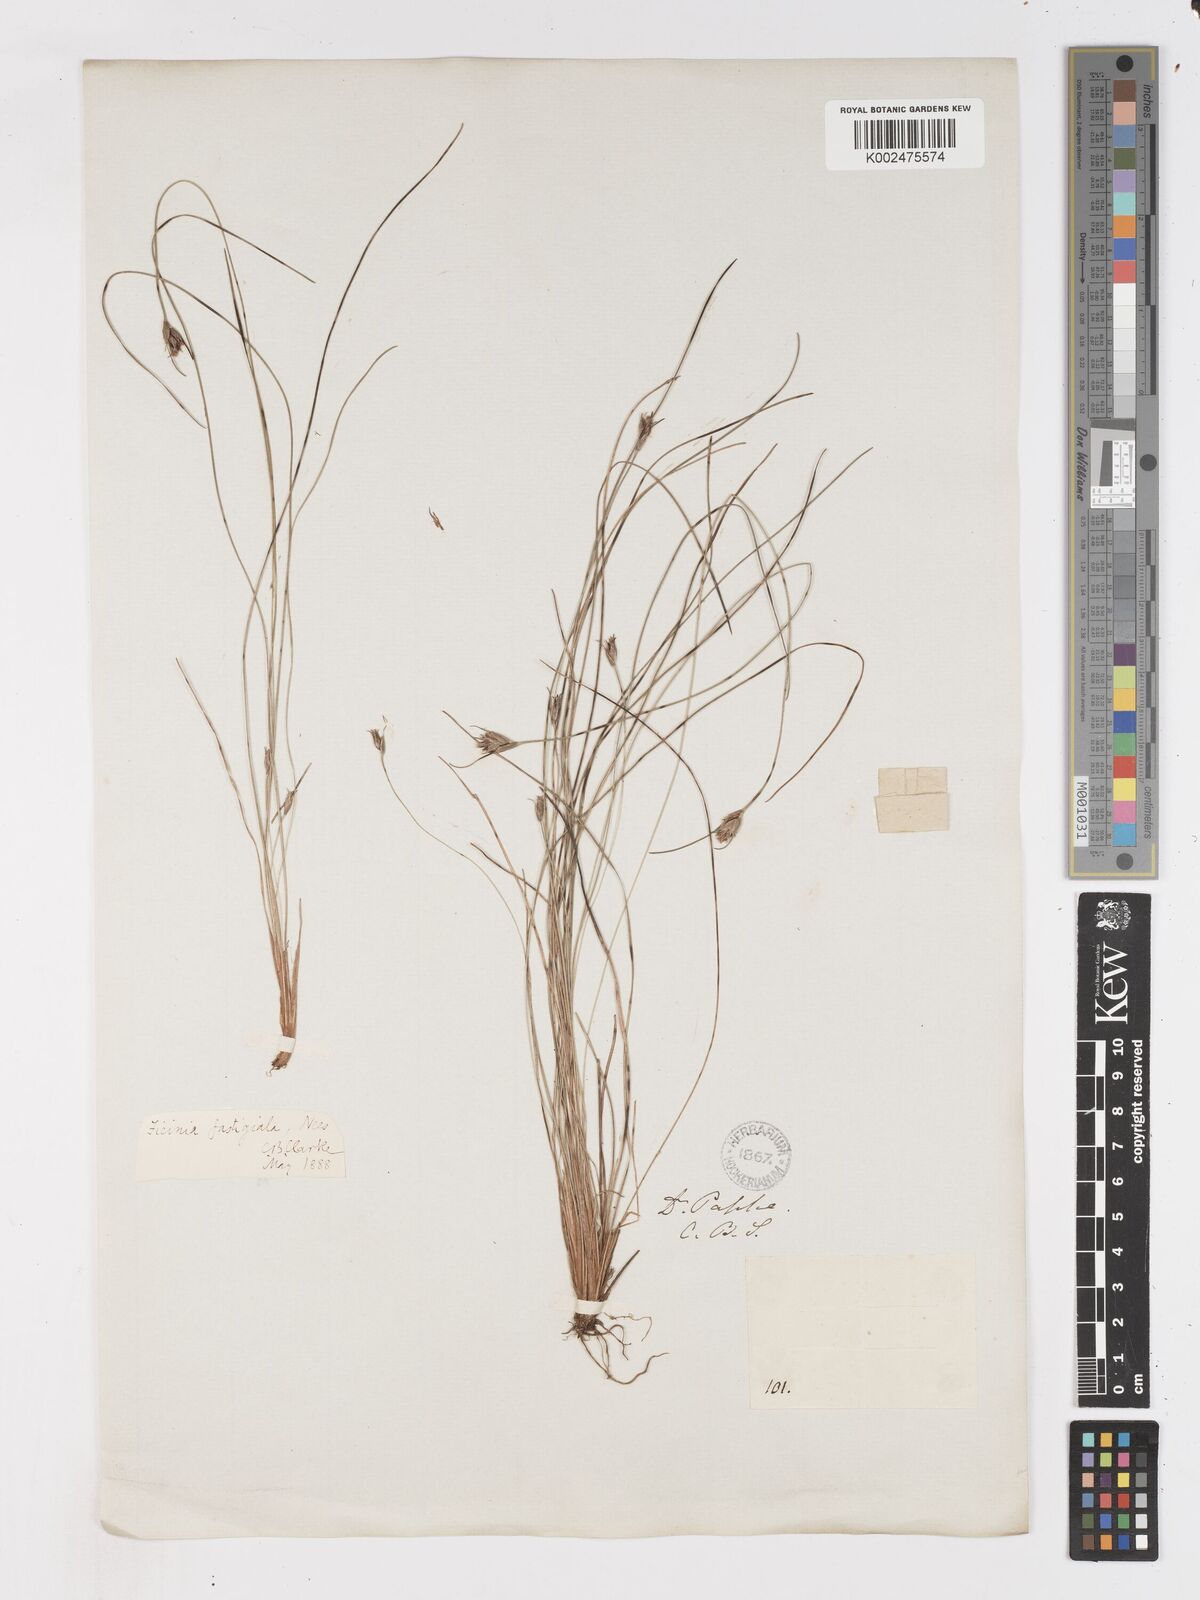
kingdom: Plantae
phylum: Tracheophyta
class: Liliopsida
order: Poales
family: Cyperaceae
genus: Ficinia
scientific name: Ficinia fastigiata
